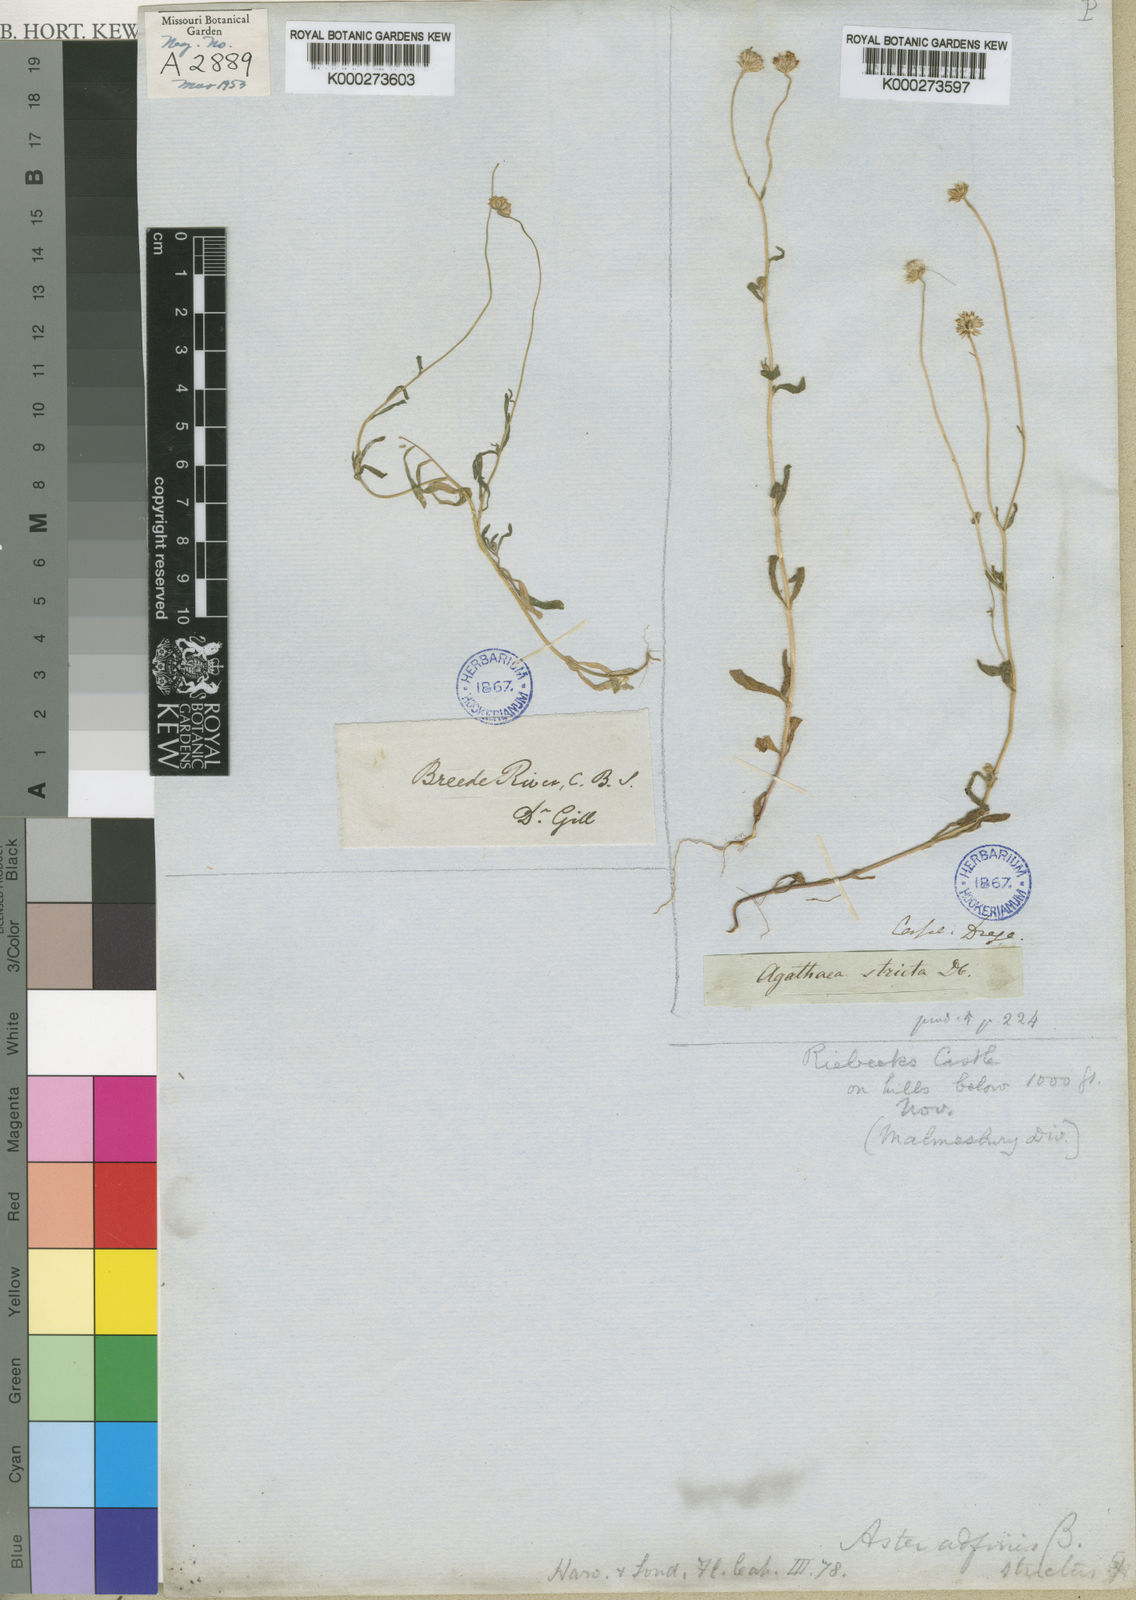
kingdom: Plantae
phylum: Tracheophyta
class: Magnoliopsida
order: Asterales
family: Asteraceae
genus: Felicia
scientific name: Felicia dubia
